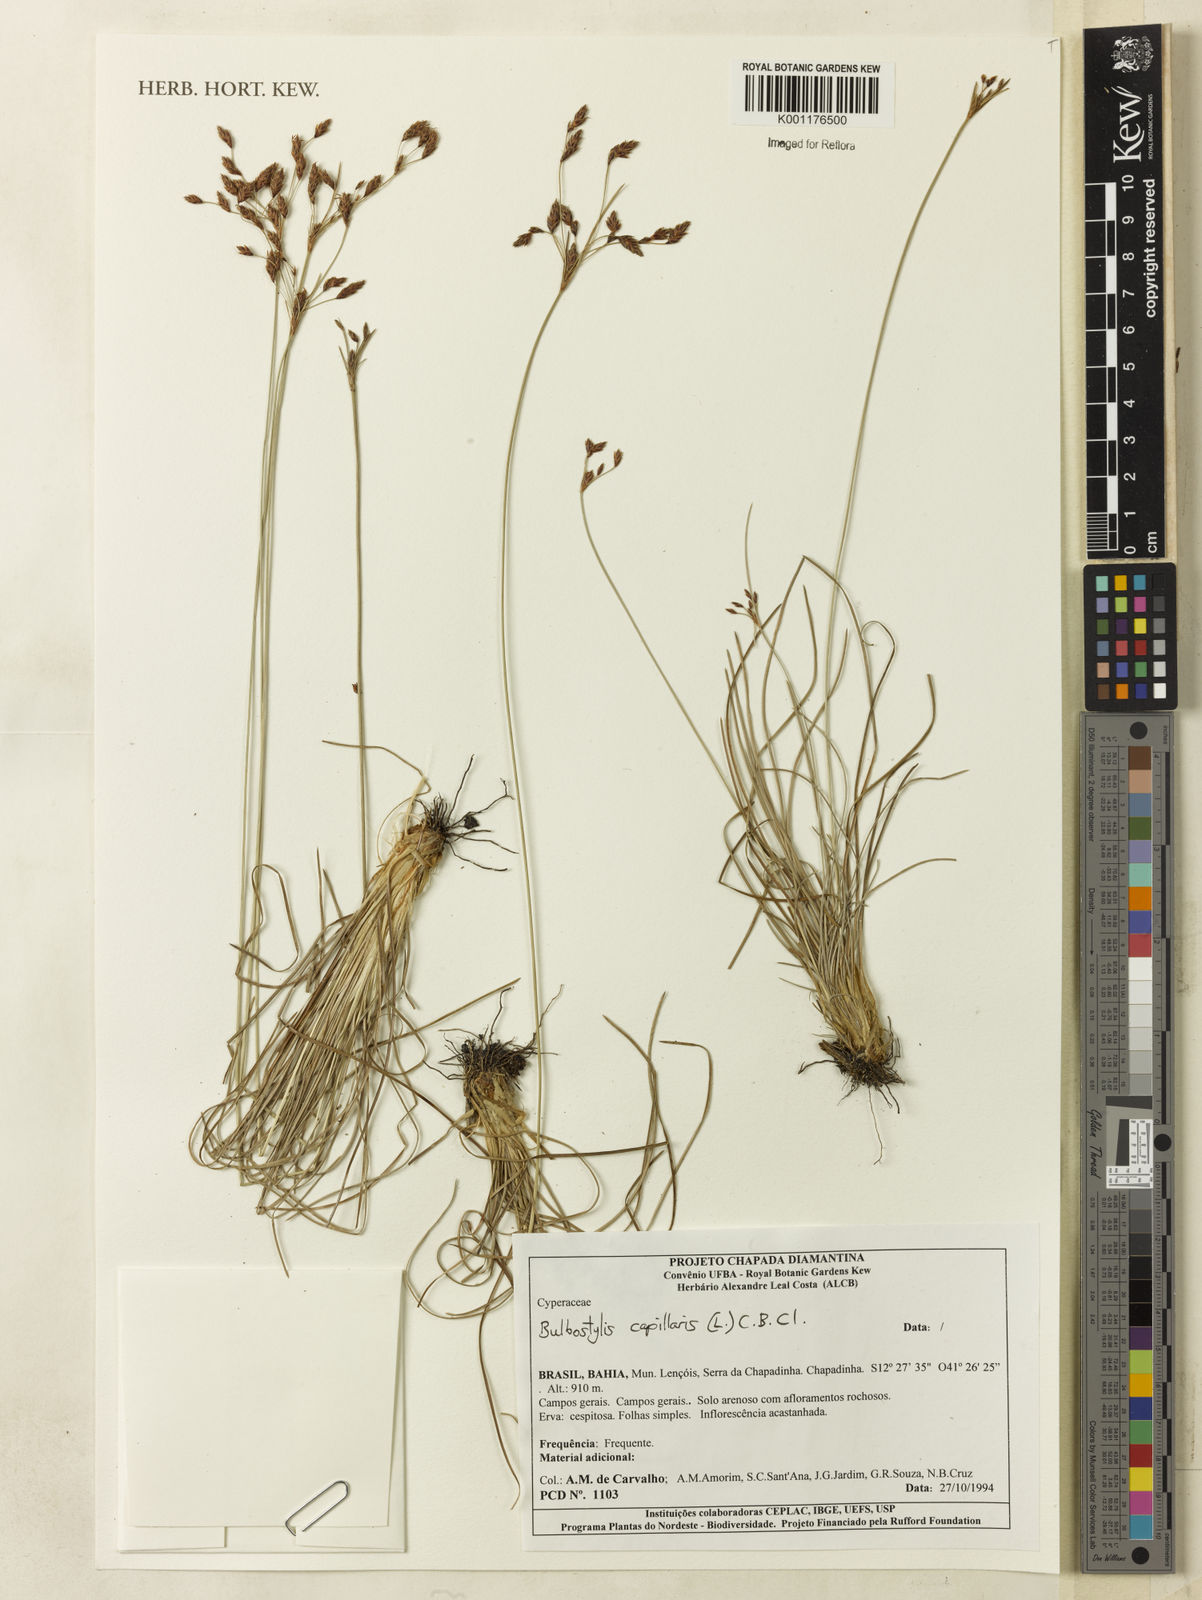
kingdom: Plantae
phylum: Tracheophyta
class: Liliopsida
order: Poales
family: Cyperaceae
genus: Bulbostylis
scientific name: Bulbostylis capillaris
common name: Densetuft hairsedge
